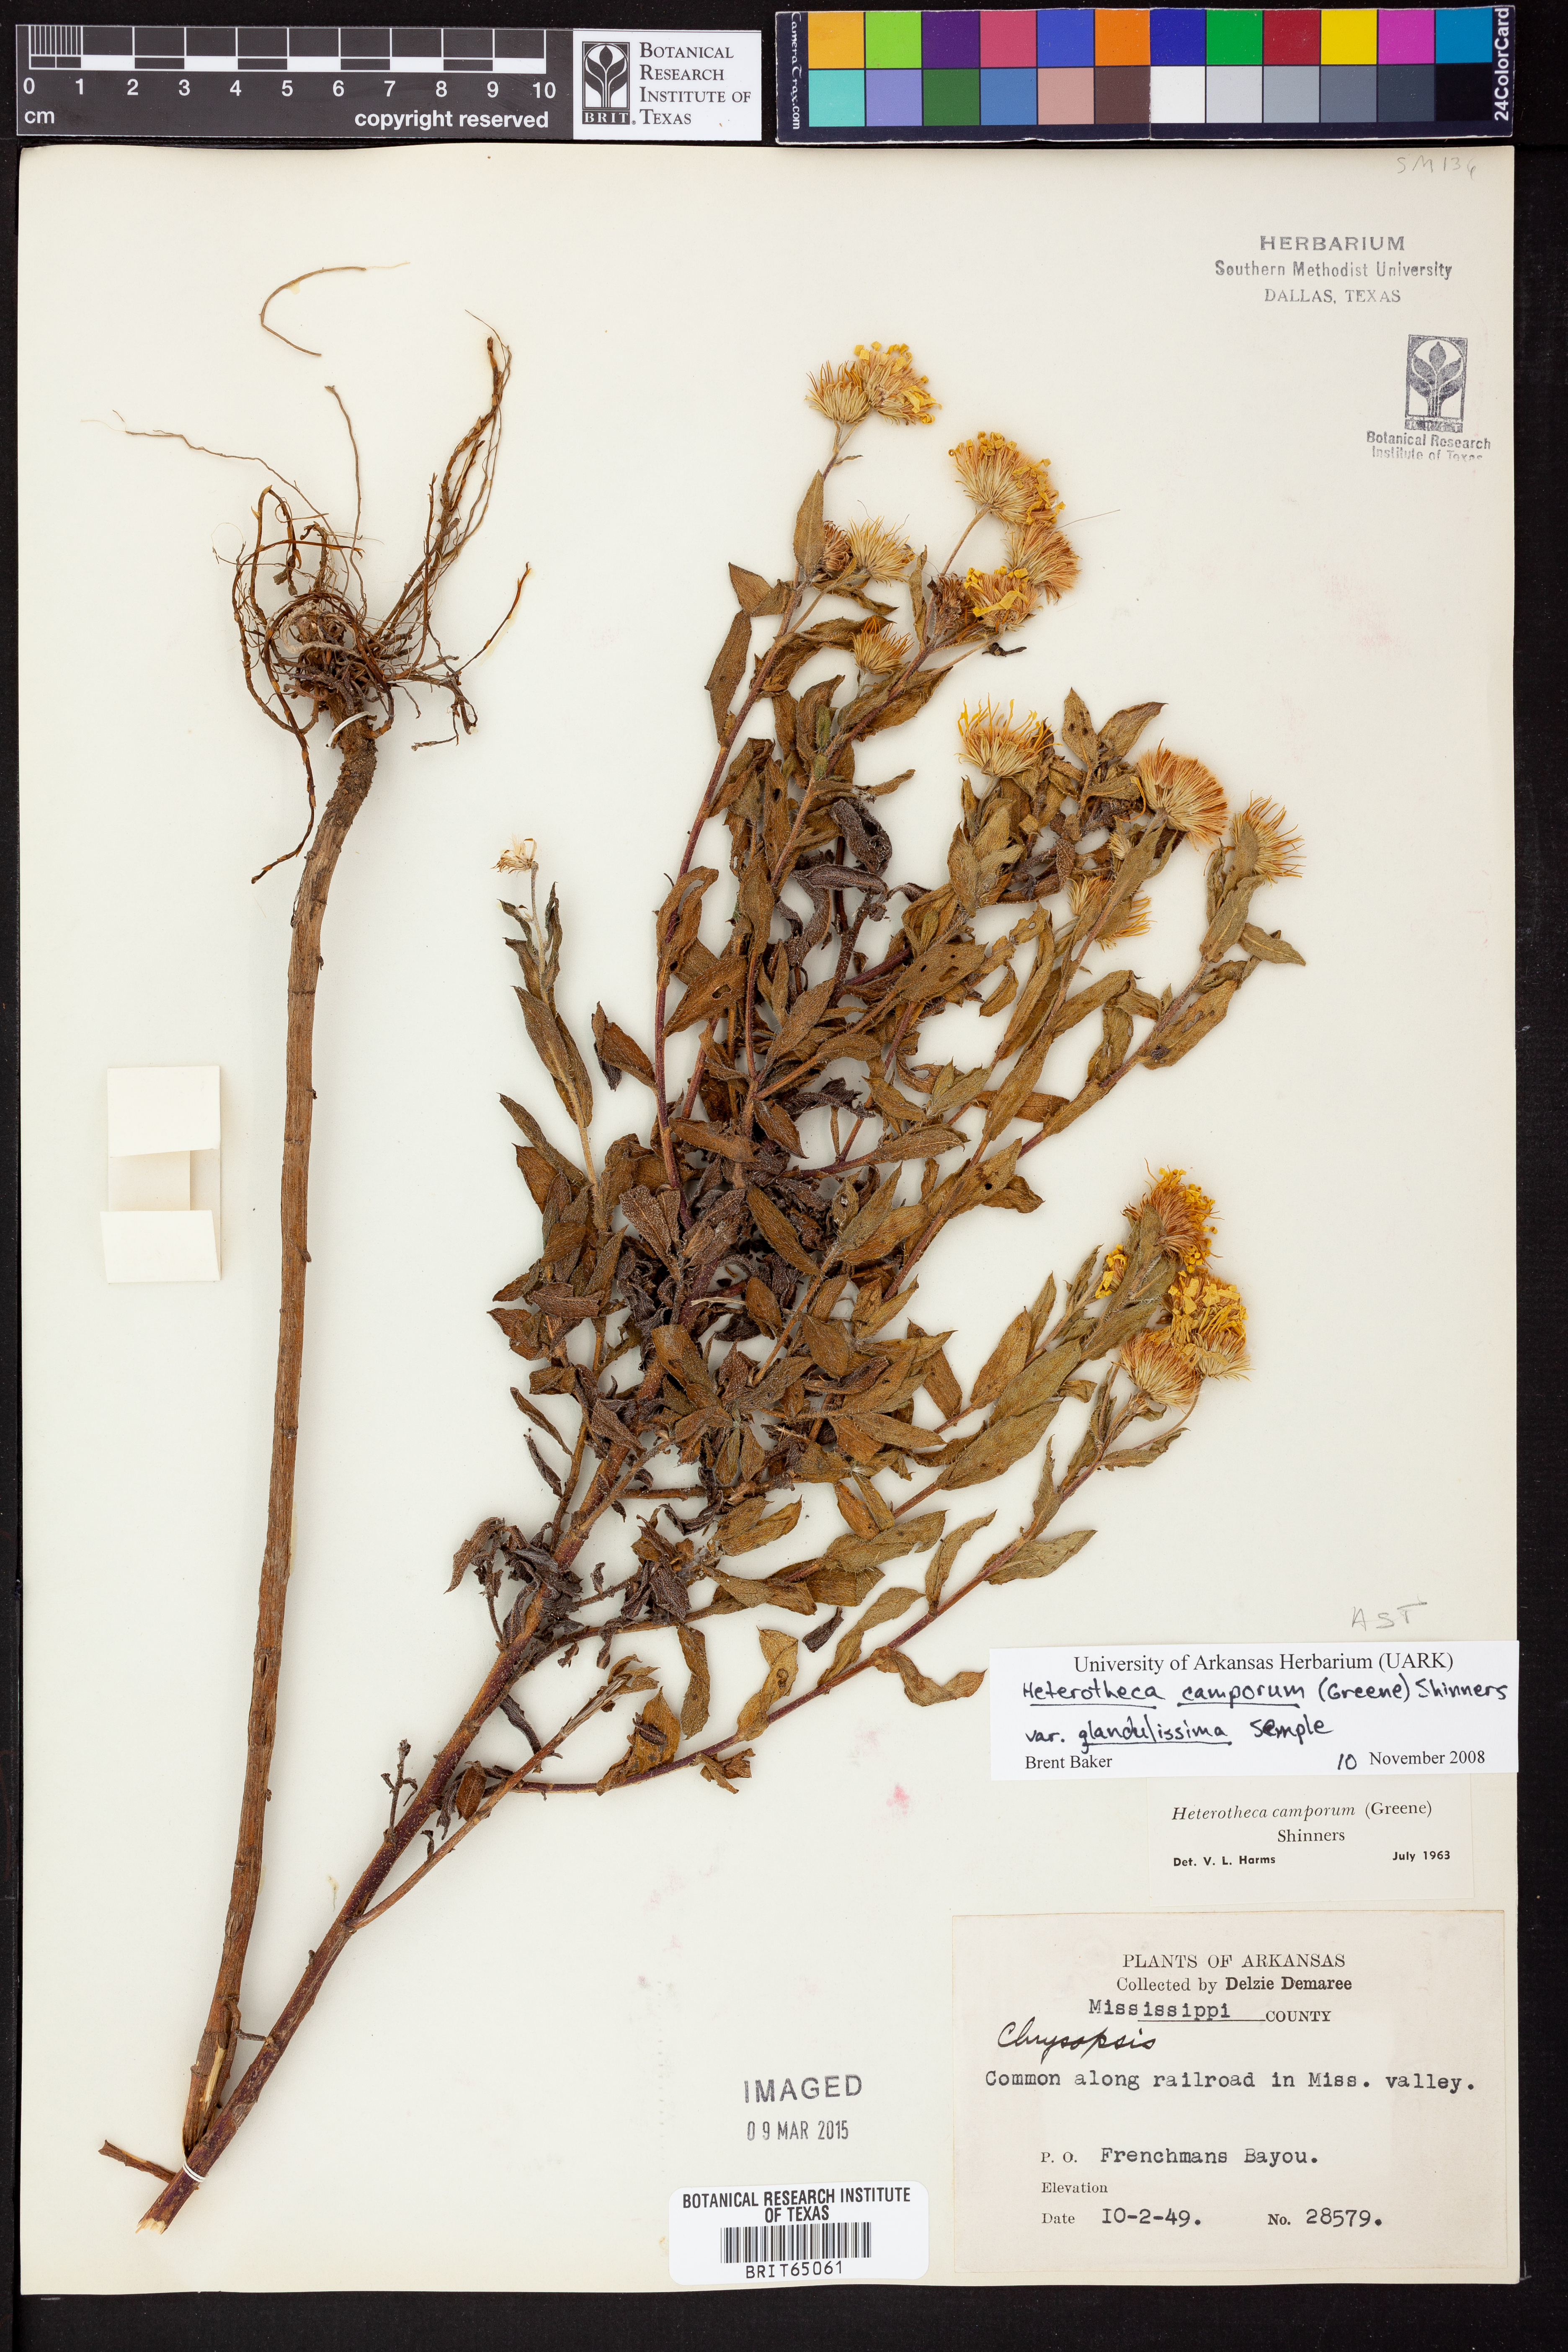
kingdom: Plantae
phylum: Tracheophyta
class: Magnoliopsida
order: Asterales
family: Asteraceae
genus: Heterotheca
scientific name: Heterotheca camporum
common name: Prairie golden-aster
